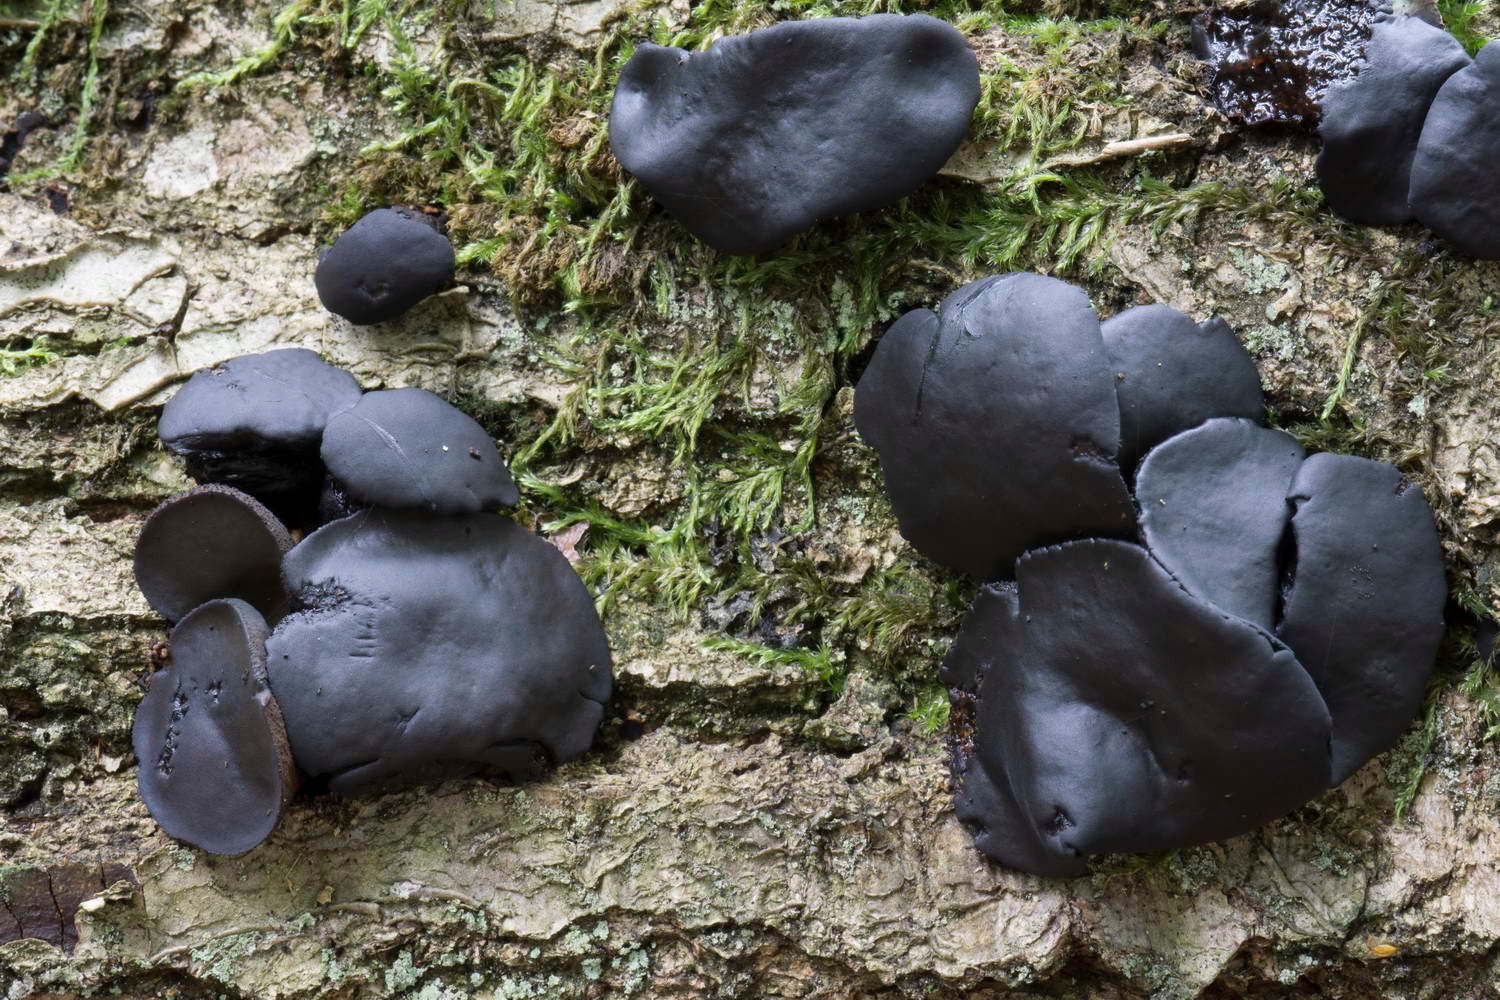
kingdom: Fungi
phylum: Ascomycota
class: Leotiomycetes
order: Phacidiales
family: Phacidiaceae
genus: Bulgaria
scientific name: Bulgaria inquinans
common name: afsmittende topsvamp
